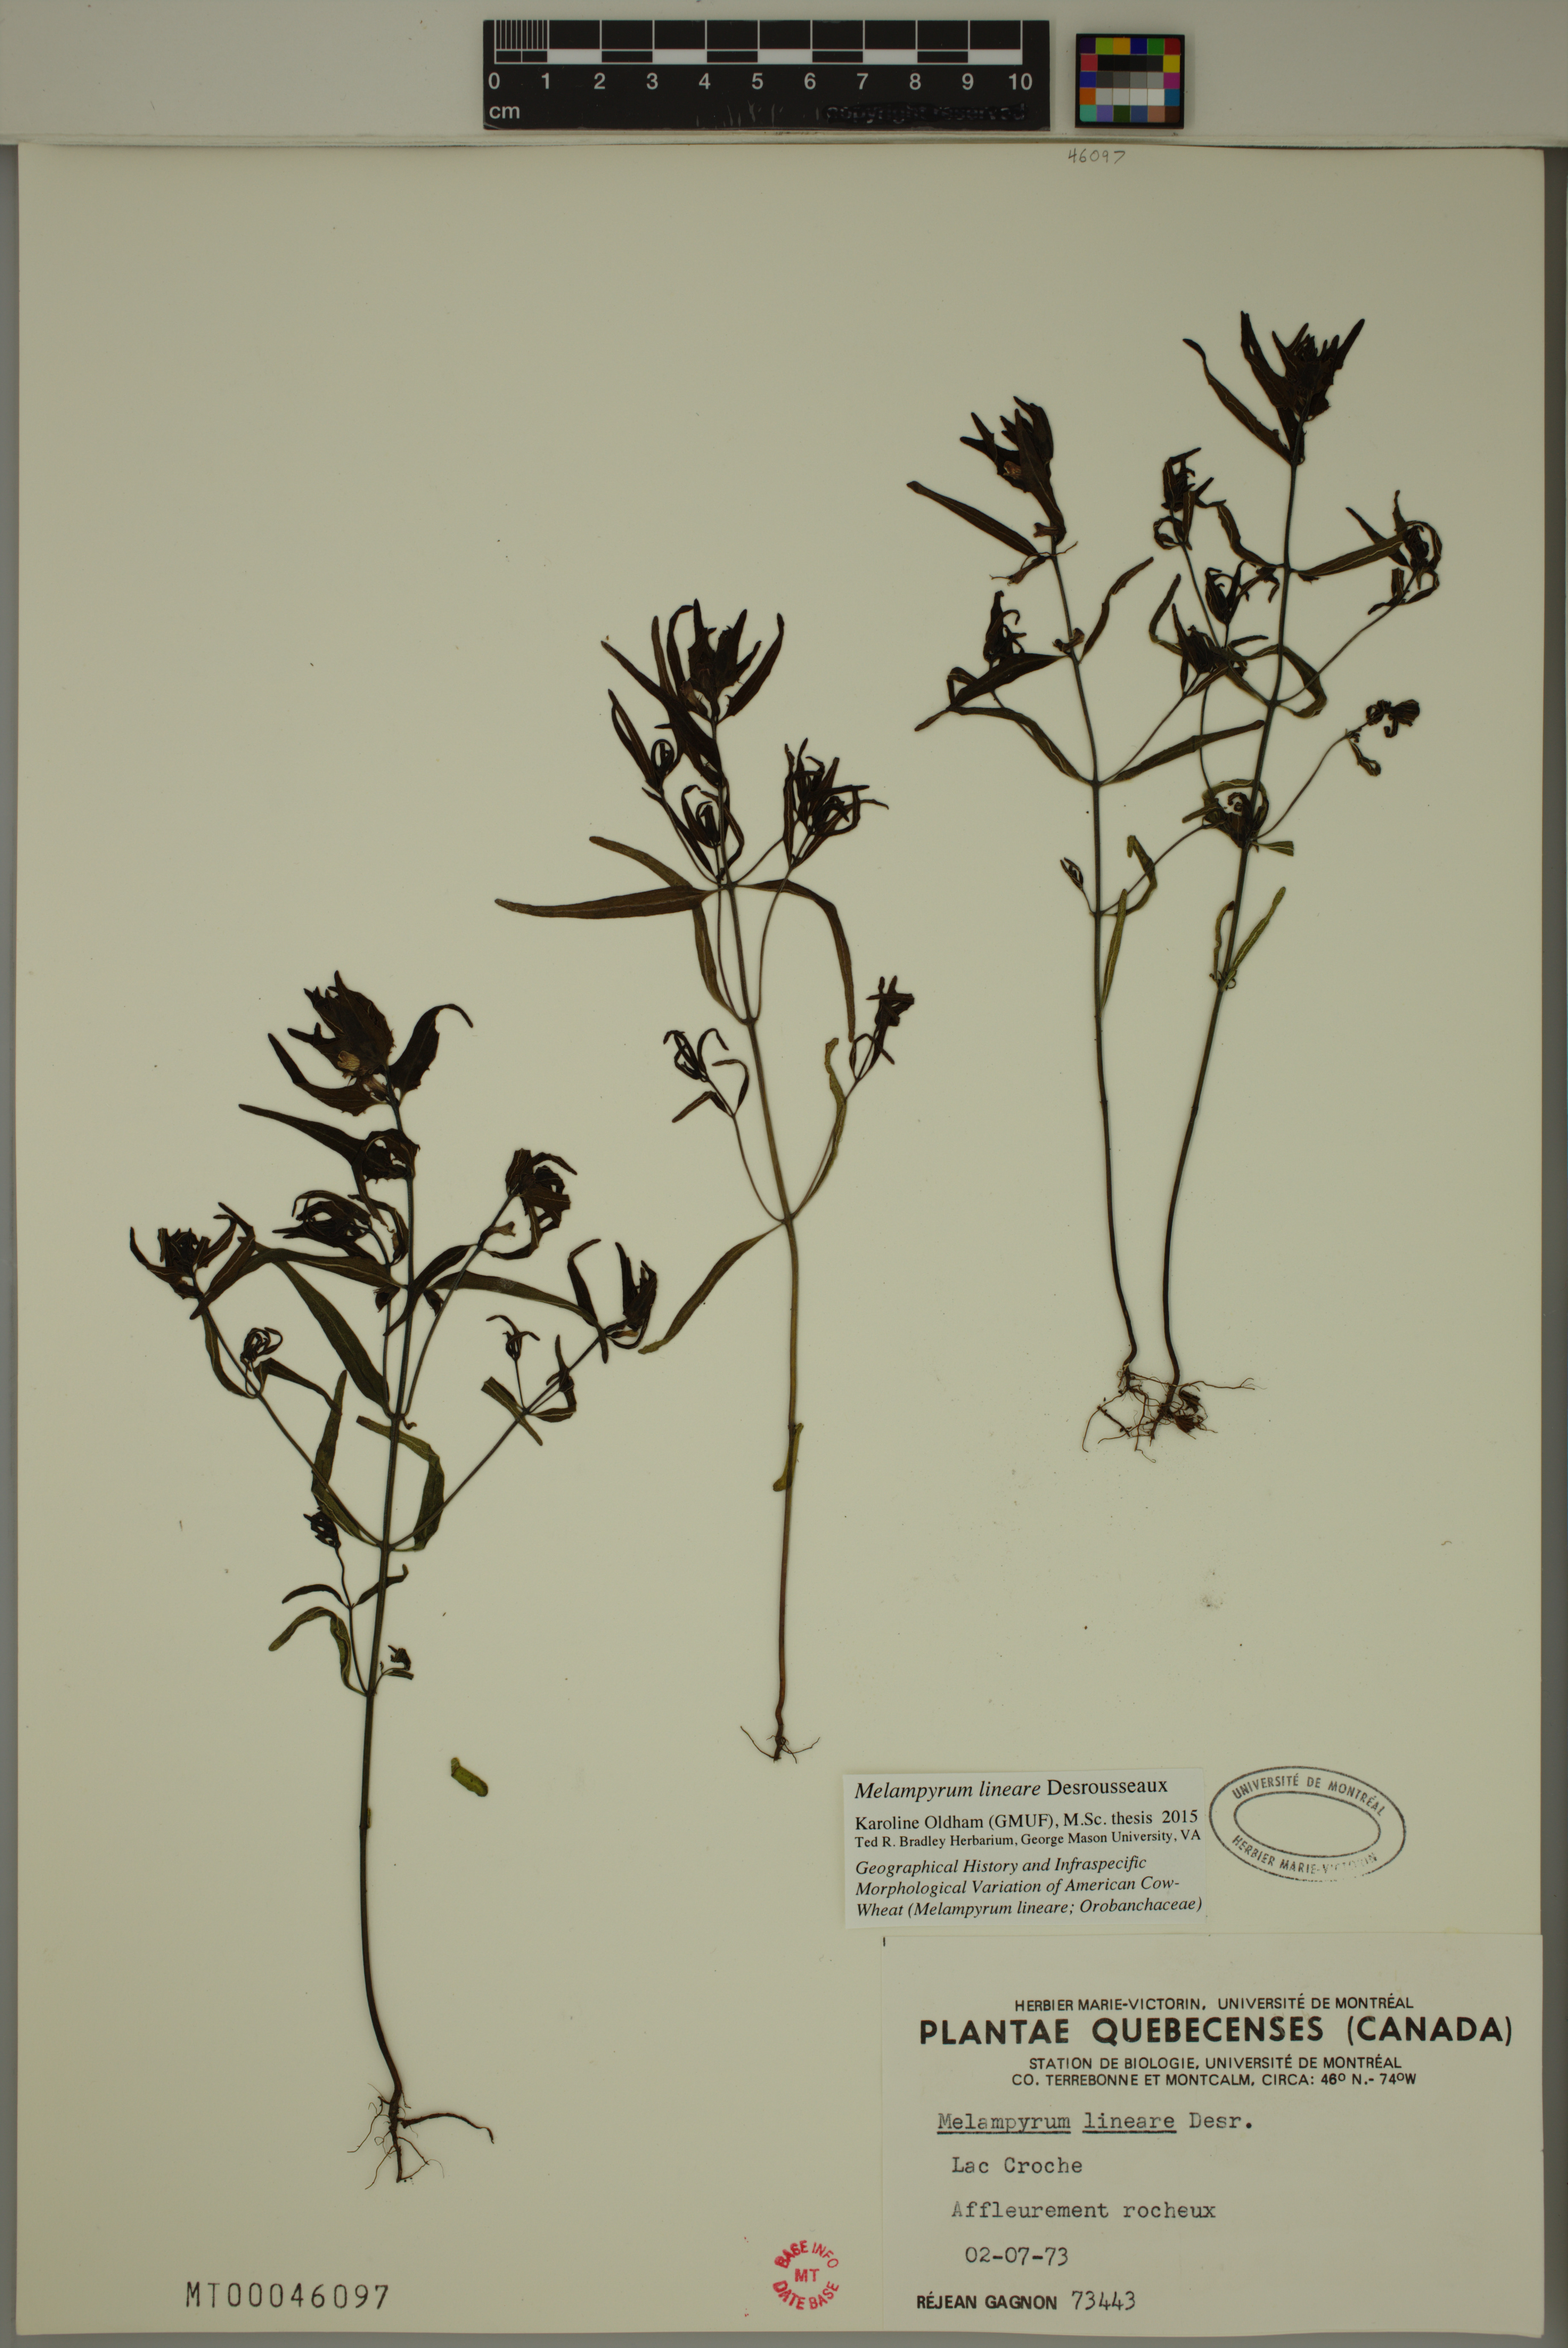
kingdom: Plantae
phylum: Tracheophyta
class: Magnoliopsida
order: Lamiales
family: Orobanchaceae
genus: Melampyrum
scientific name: Melampyrum lineare
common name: American cow-wheat
